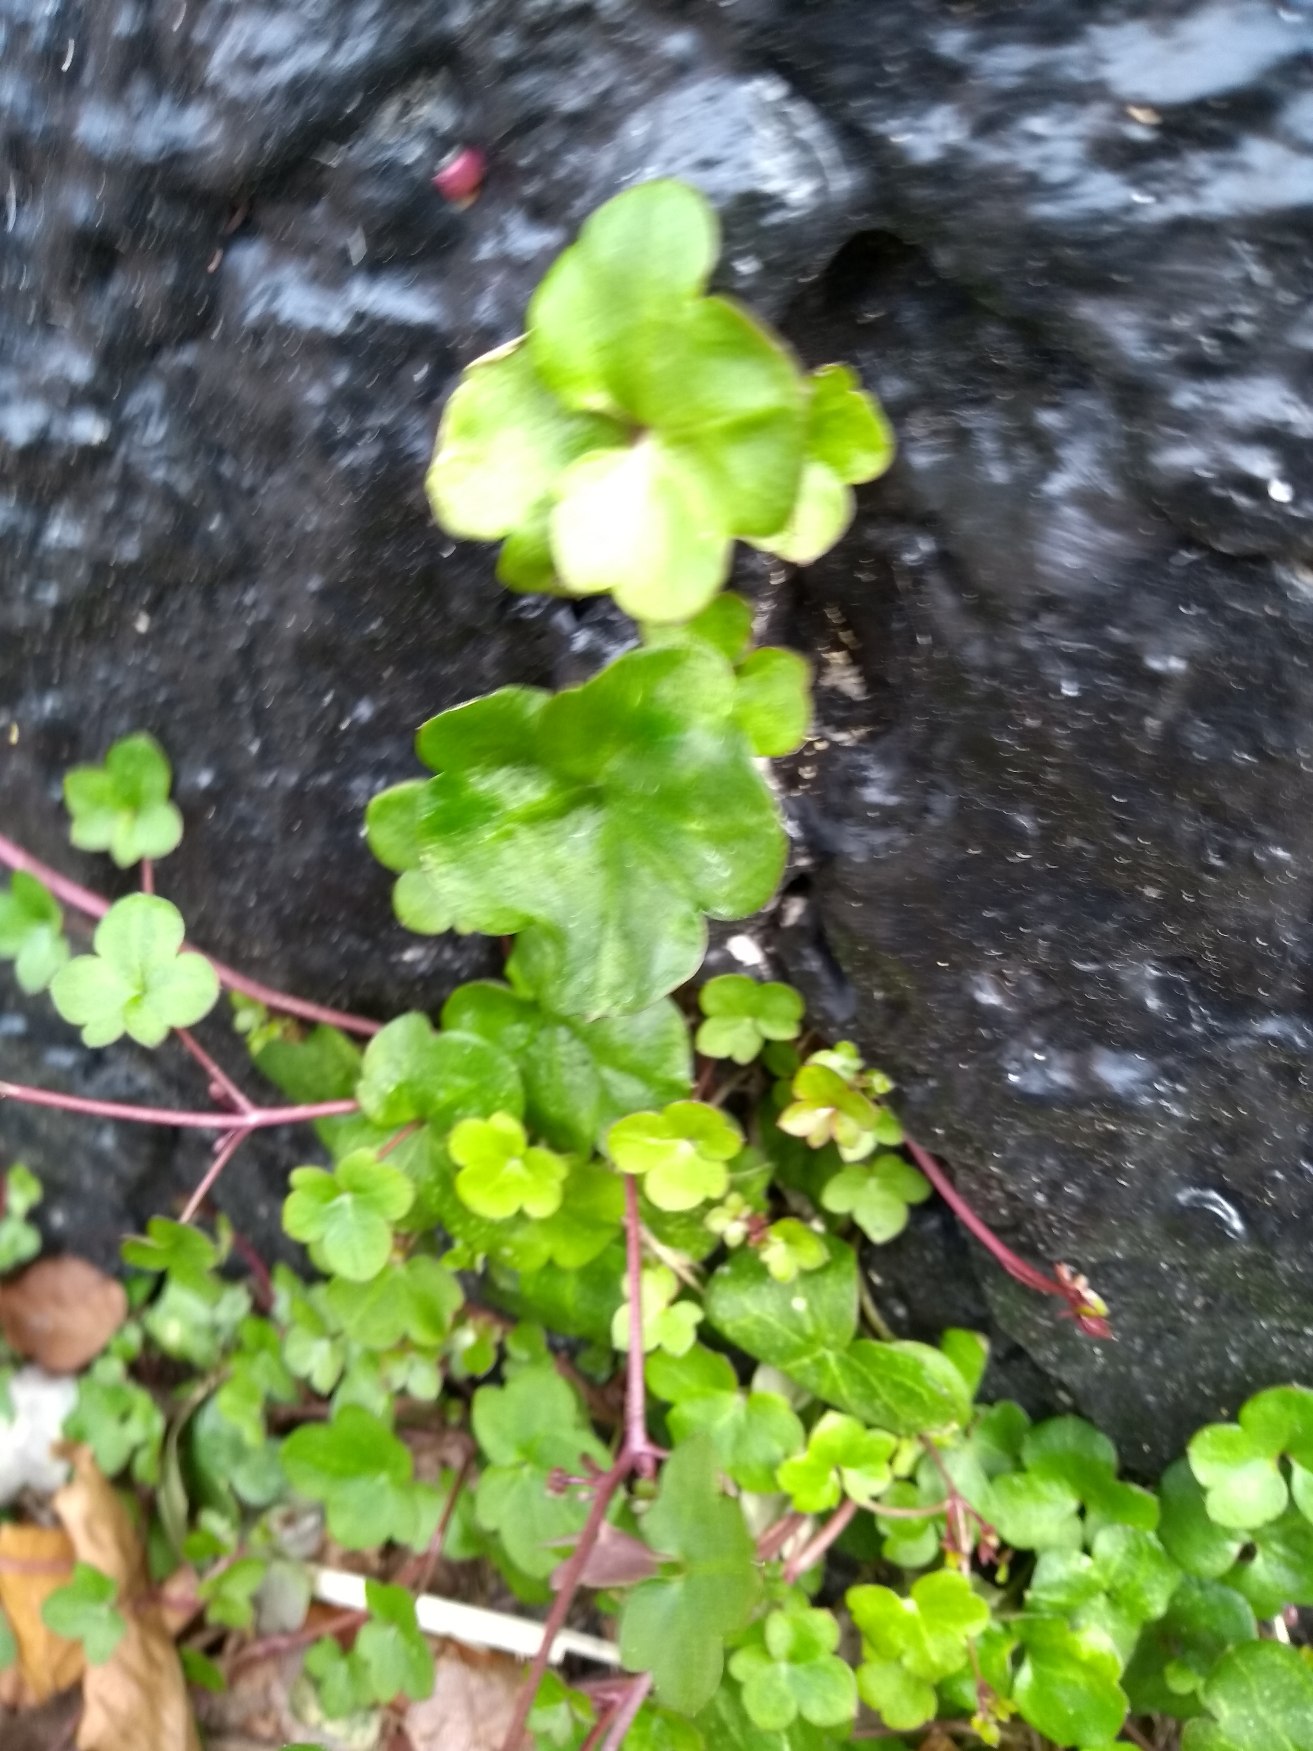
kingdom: Plantae
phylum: Tracheophyta
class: Magnoliopsida
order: Lamiales
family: Plantaginaceae
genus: Cymbalaria
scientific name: Cymbalaria muralis
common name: Vedbend-torskemund
